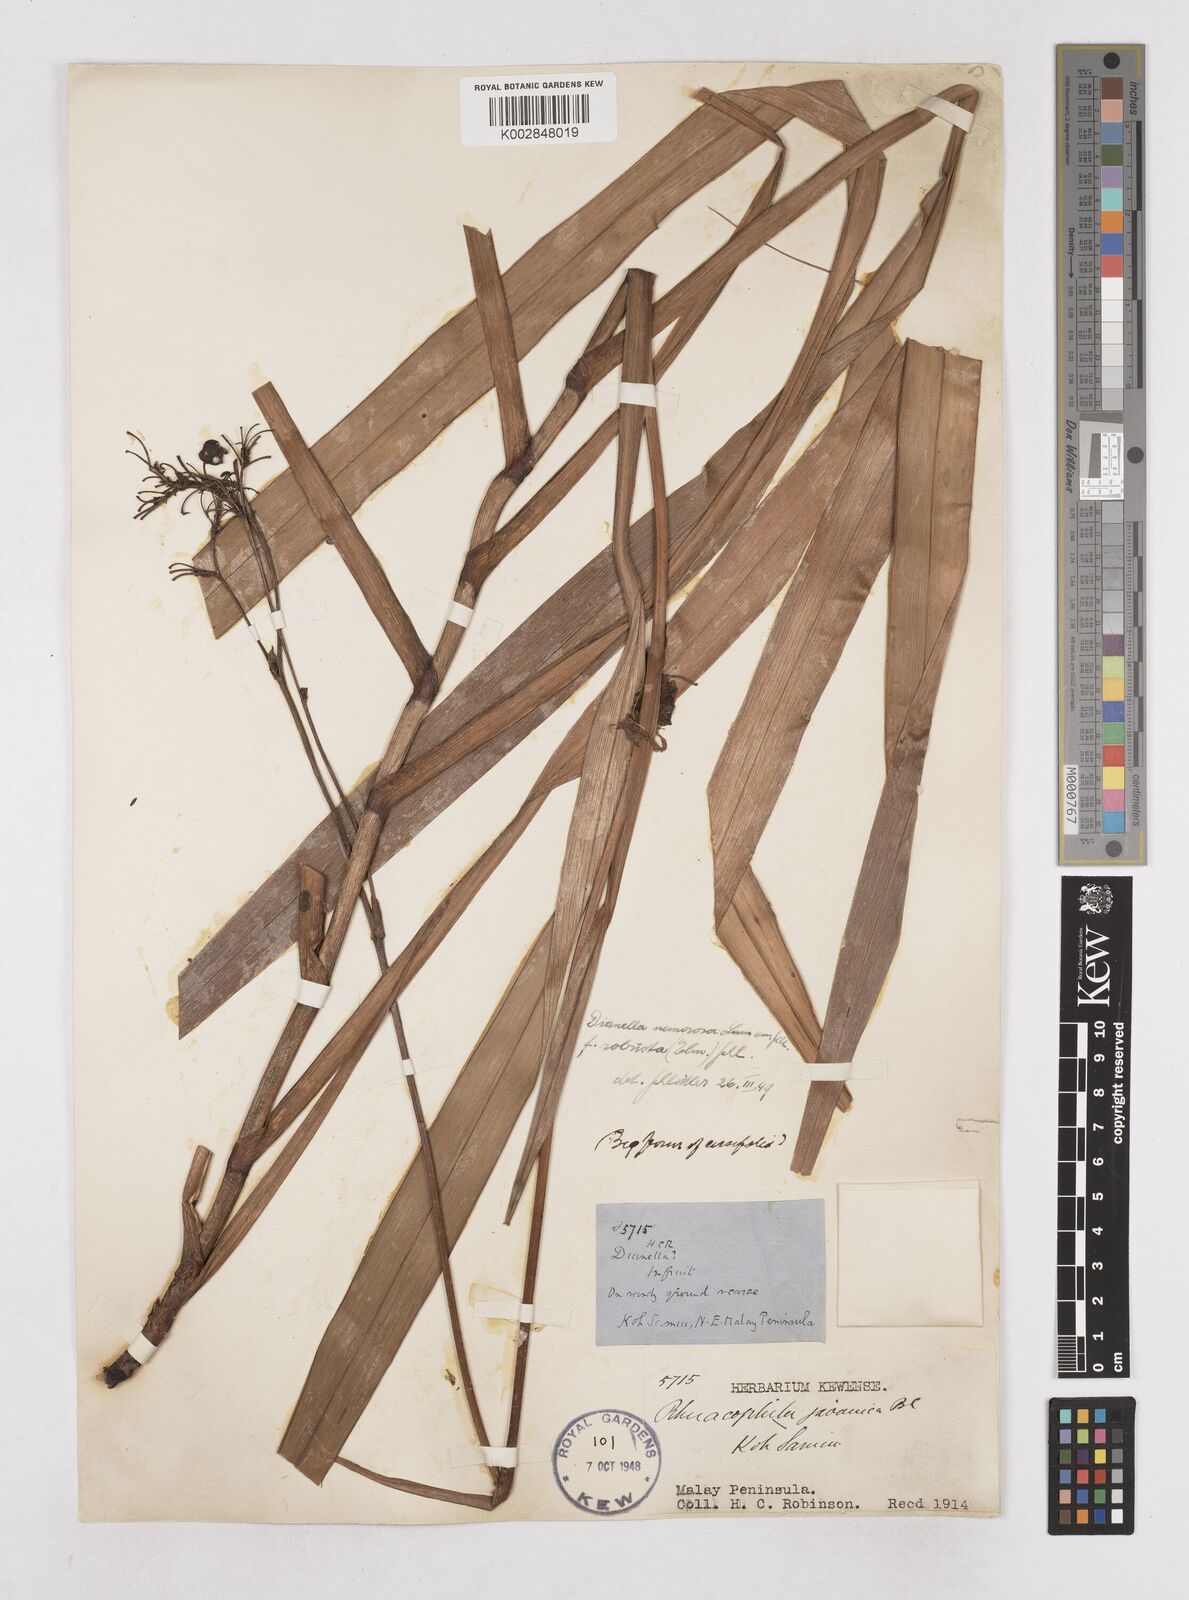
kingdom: Plantae
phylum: Tracheophyta
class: Liliopsida
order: Asparagales
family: Asphodelaceae
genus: Dianella
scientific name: Dianella ensifolia
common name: New zealand lilyplant
